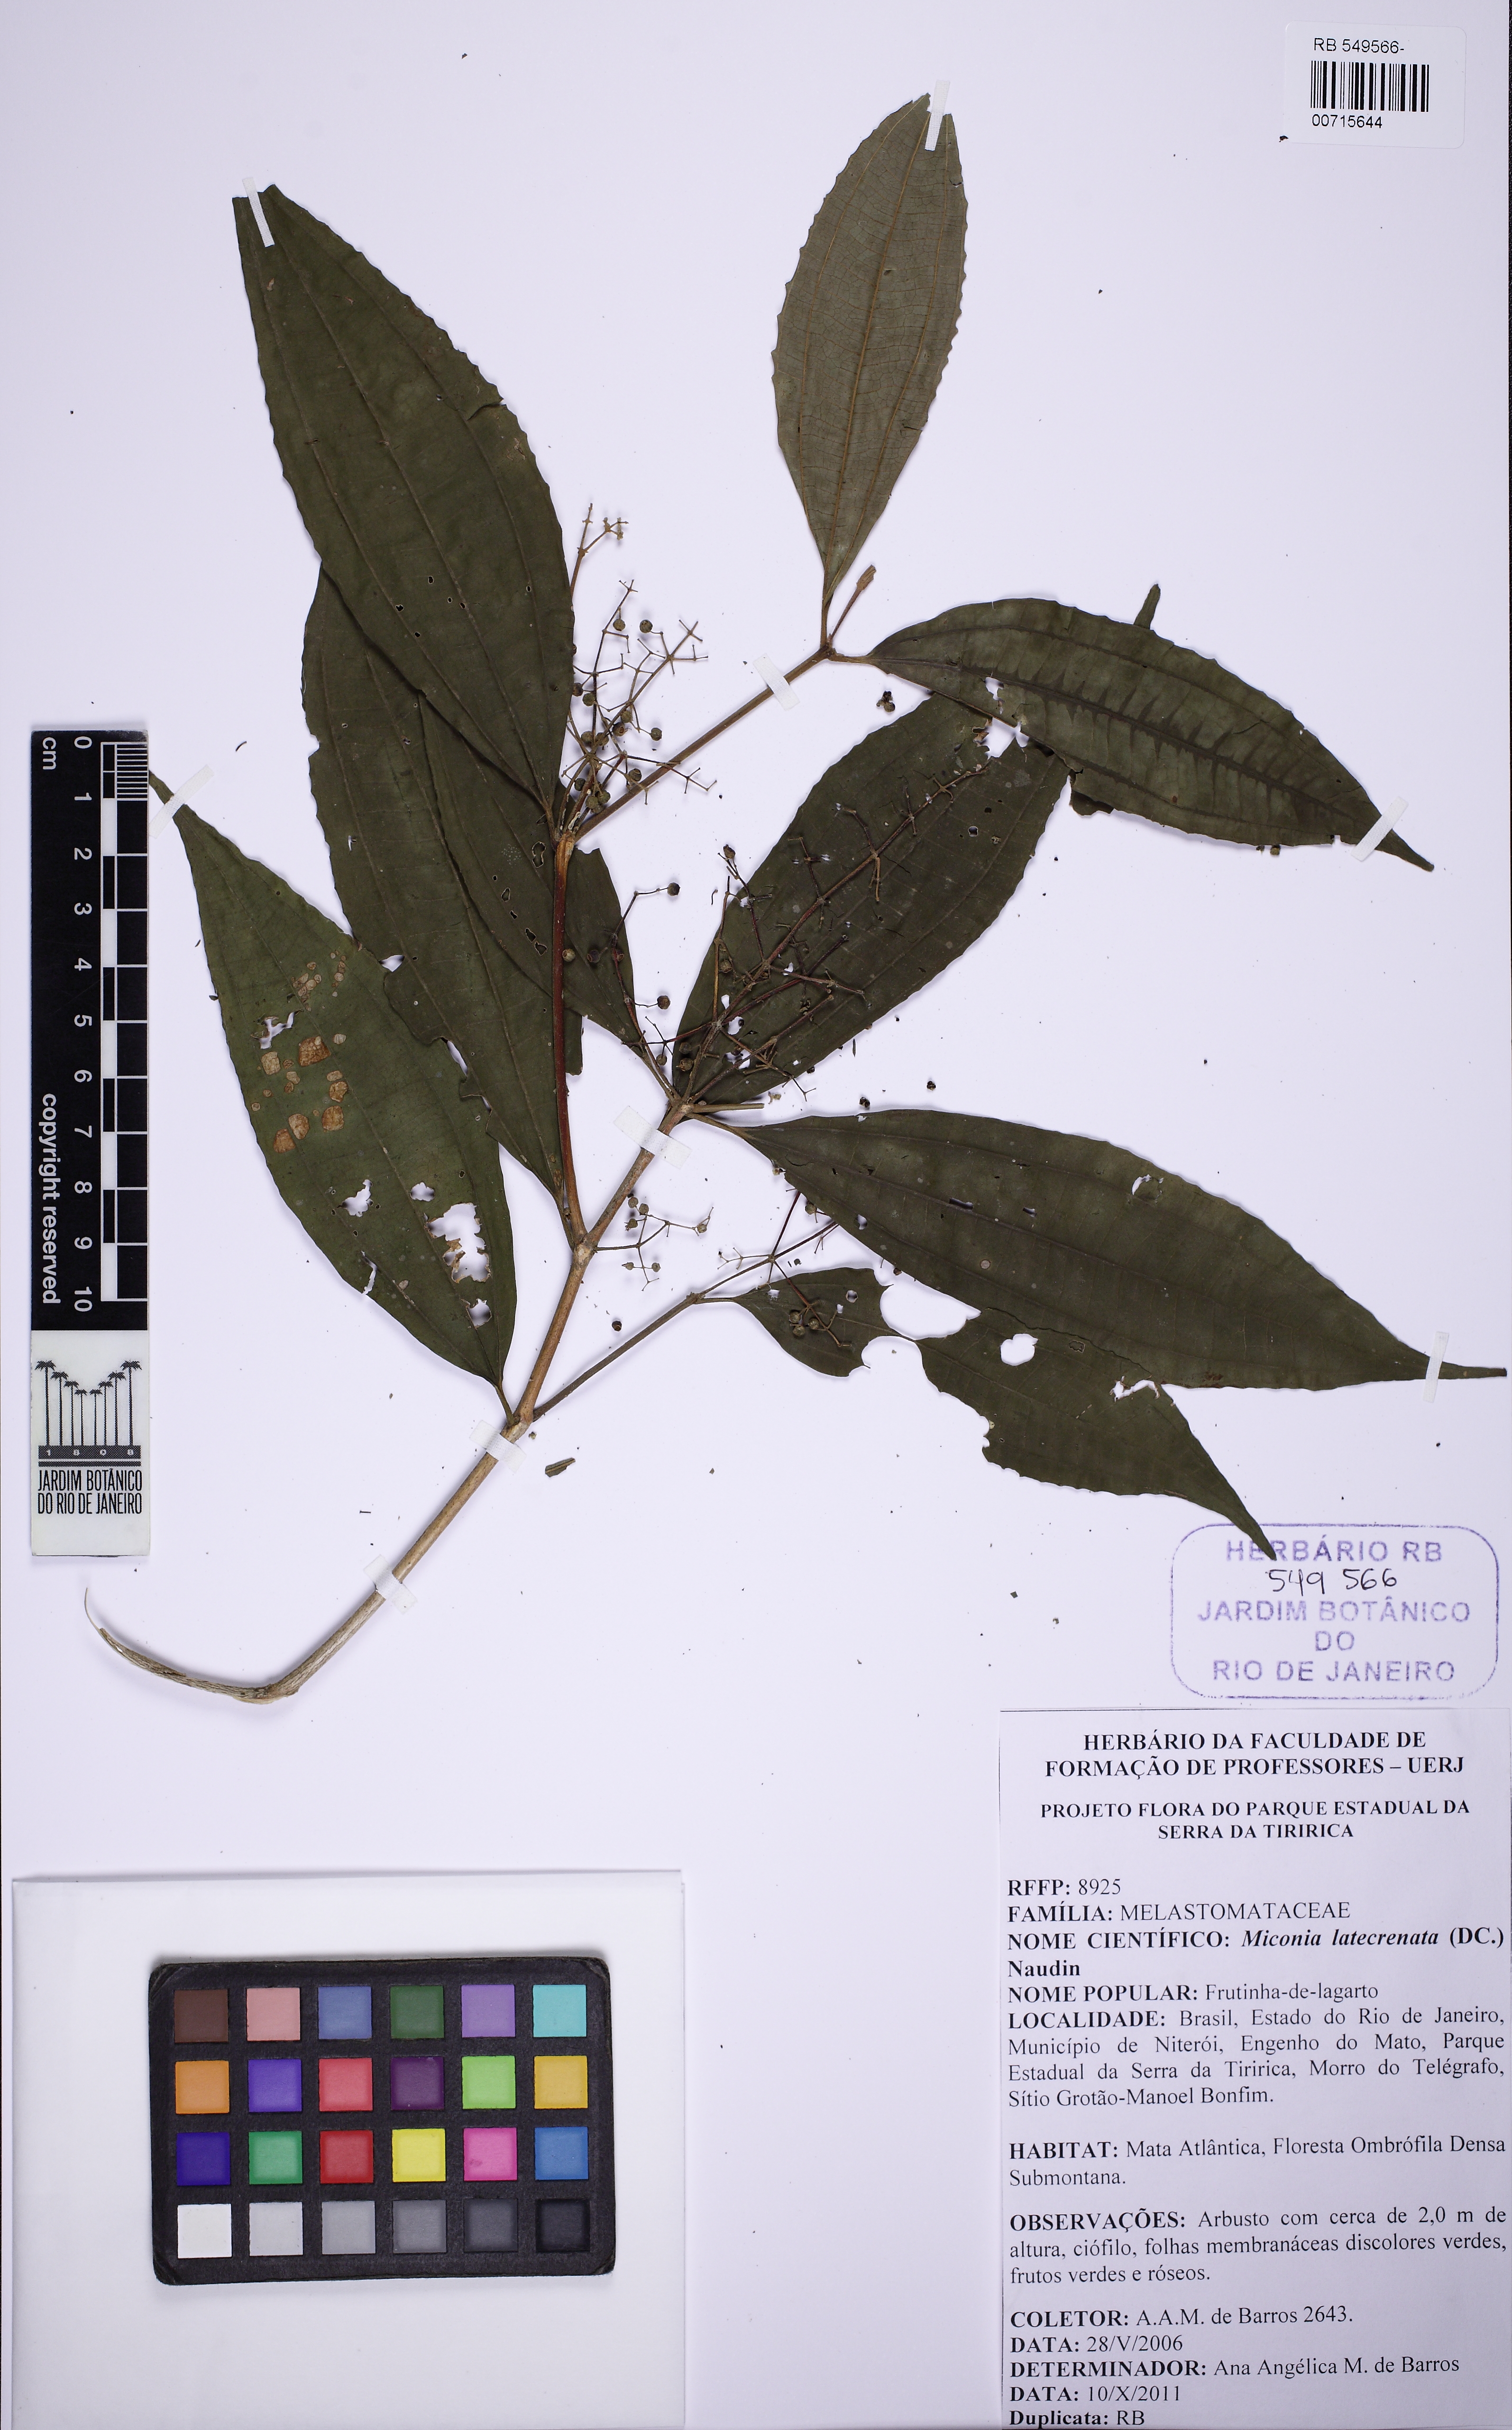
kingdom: Plantae
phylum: Tracheophyta
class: Magnoliopsida
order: Myrtales
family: Melastomataceae
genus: Miconia
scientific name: Miconia latecrenata
